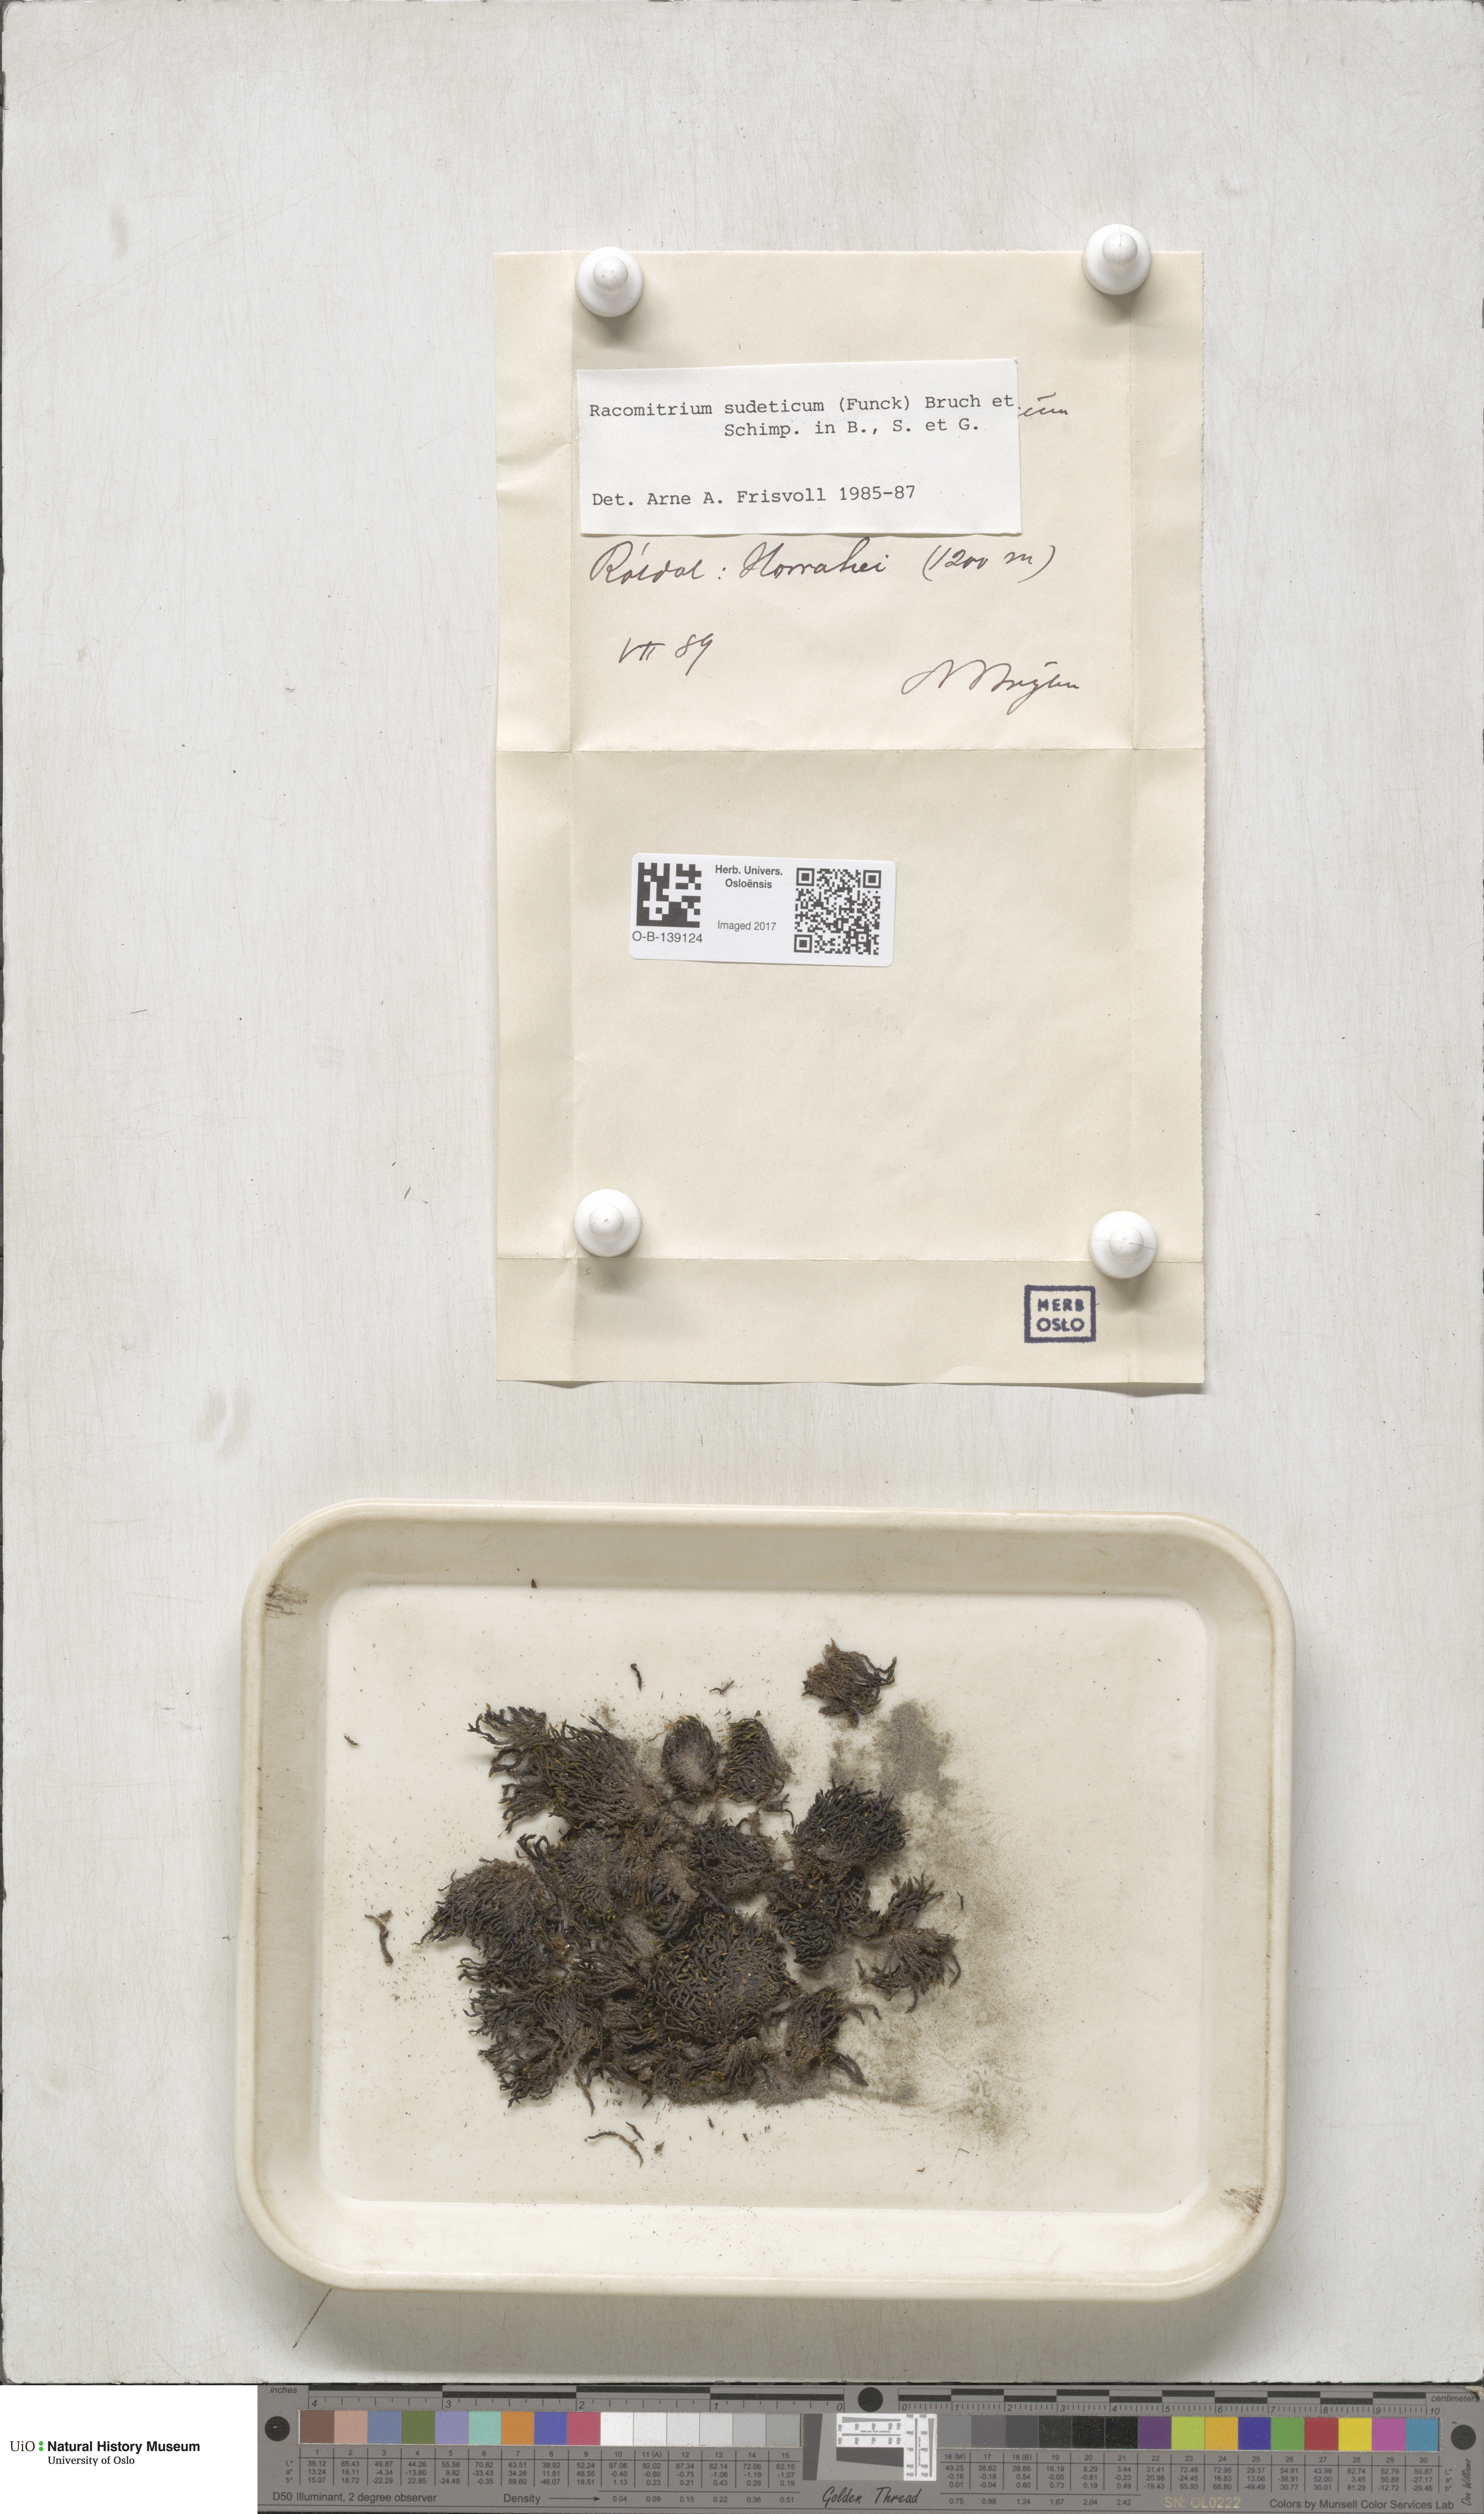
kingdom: Plantae
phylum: Bryophyta
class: Bryopsida
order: Grimmiales
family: Grimmiaceae
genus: Bucklandiella
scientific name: Bucklandiella sudetica
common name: Slender fringe-moss
